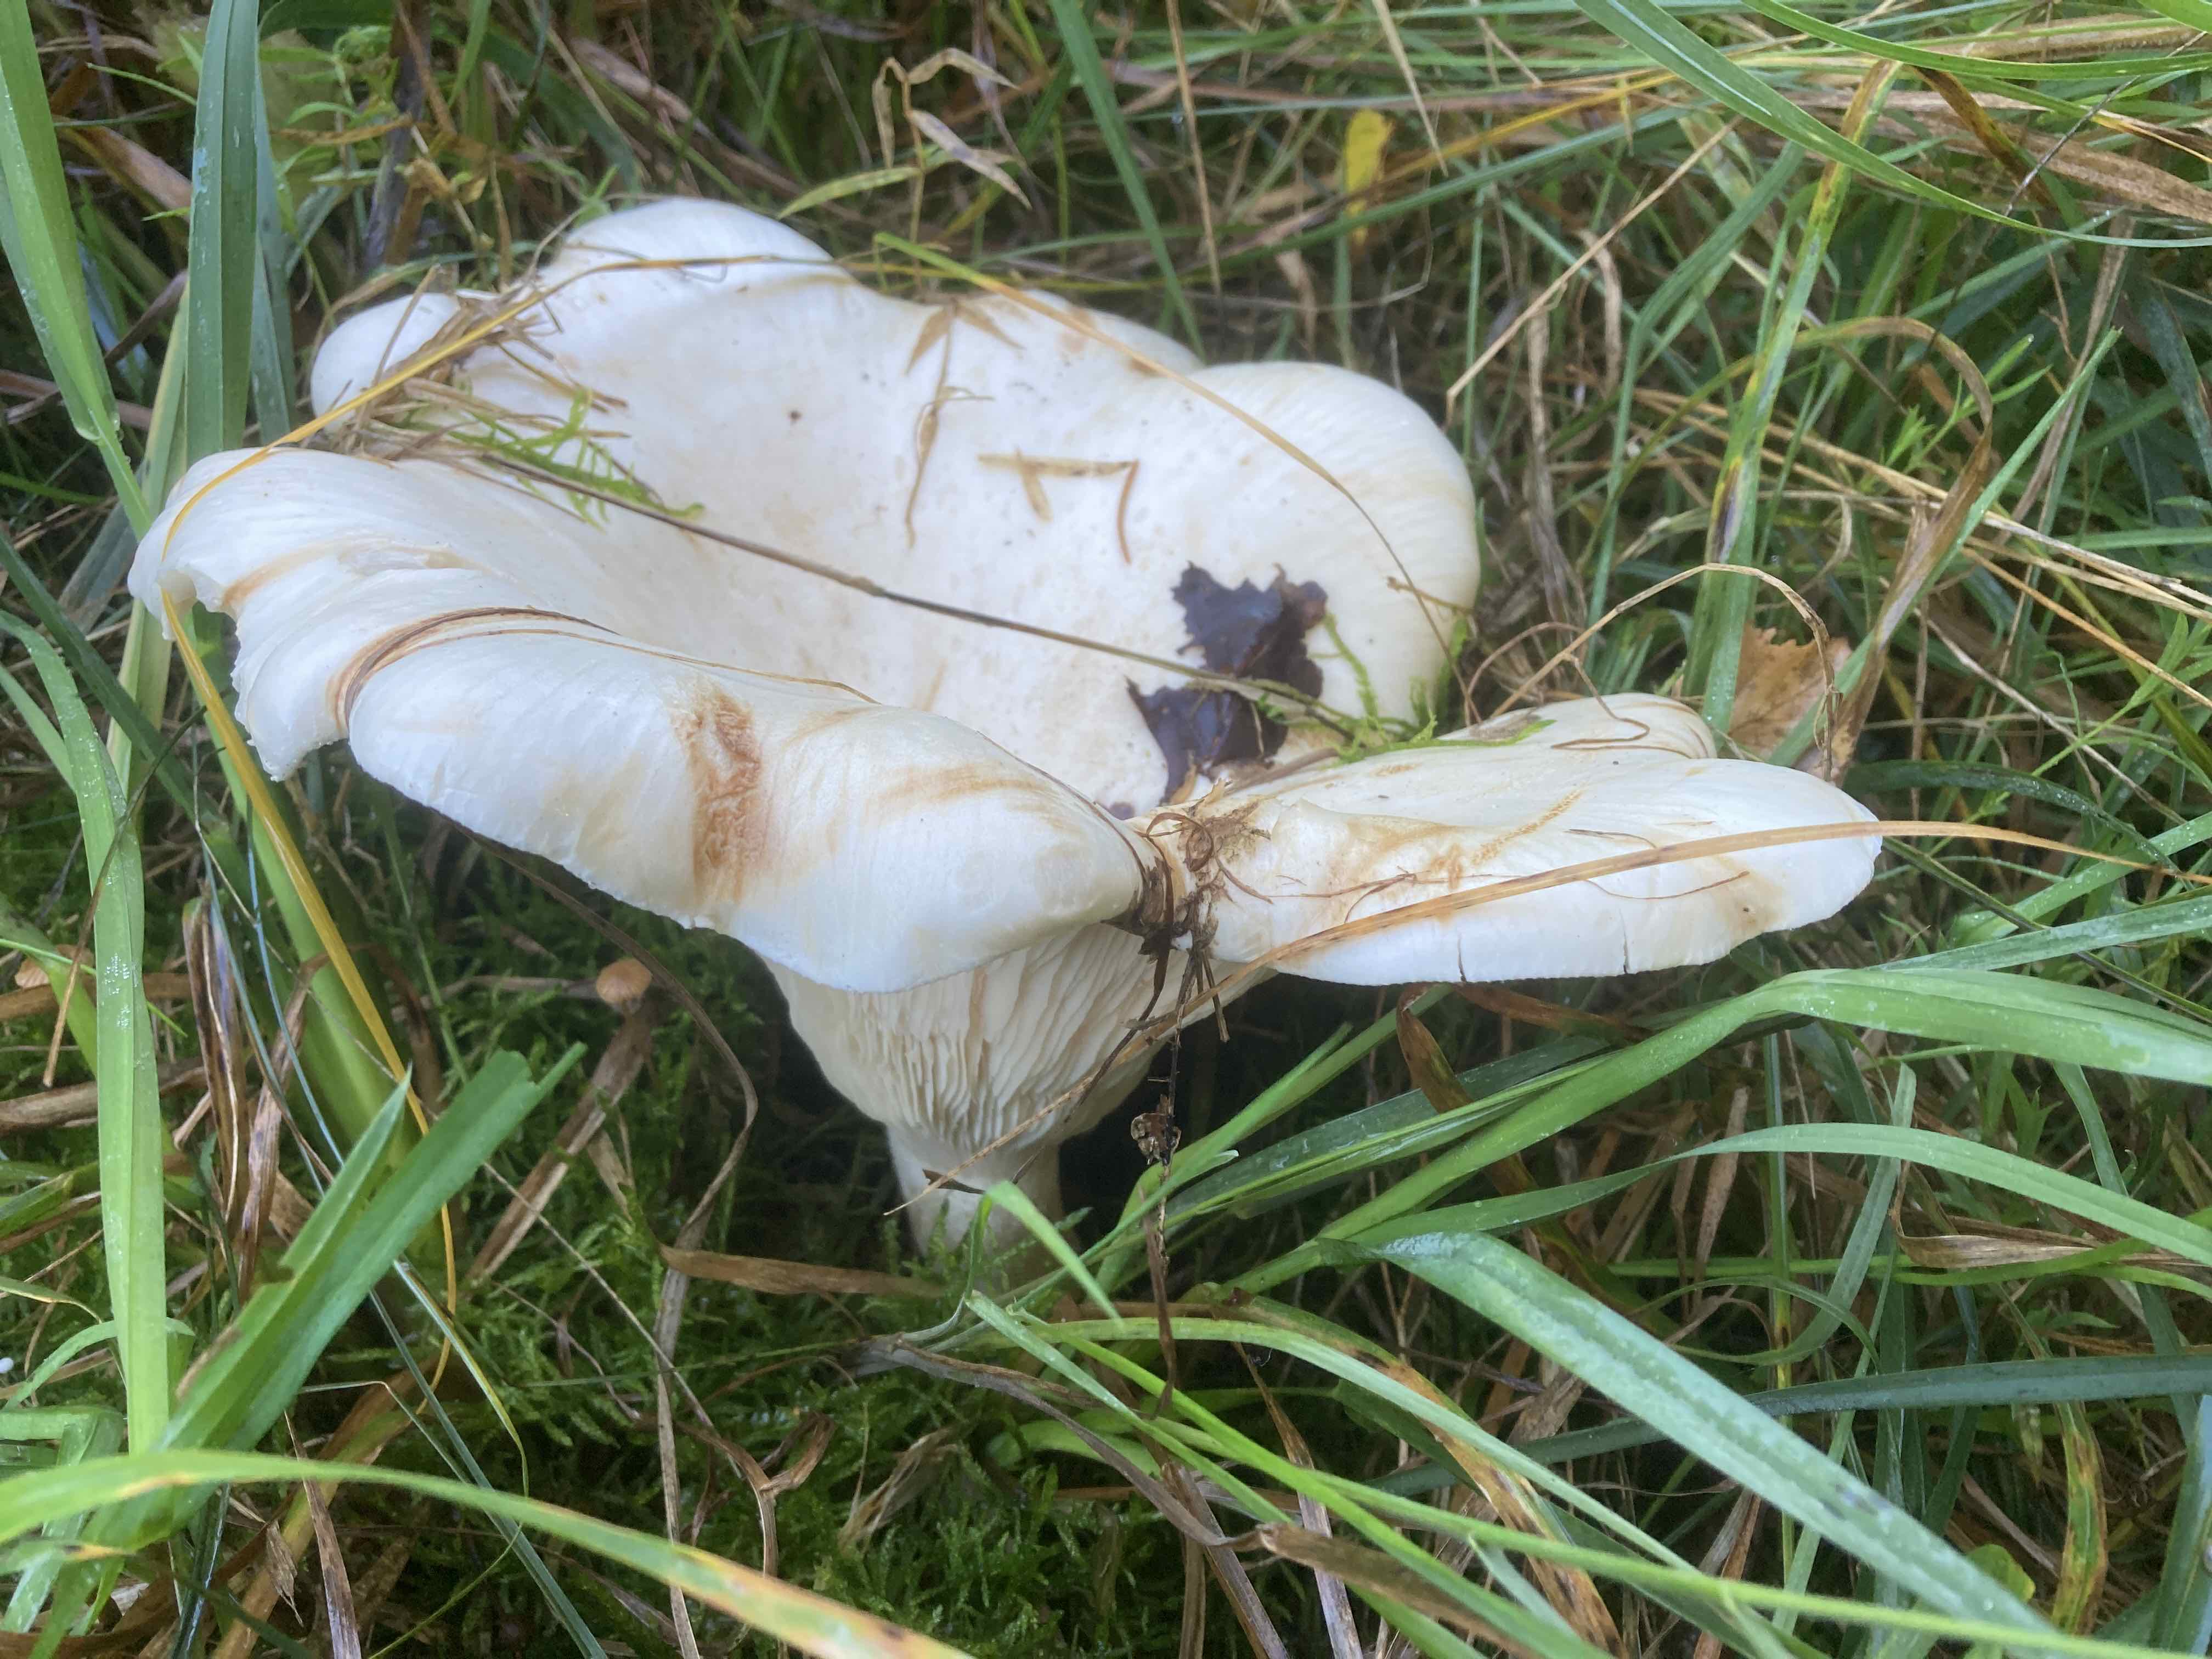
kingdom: Fungi
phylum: Basidiomycota
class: Agaricomycetes
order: Agaricales
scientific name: Agaricales
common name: champignonordenen
